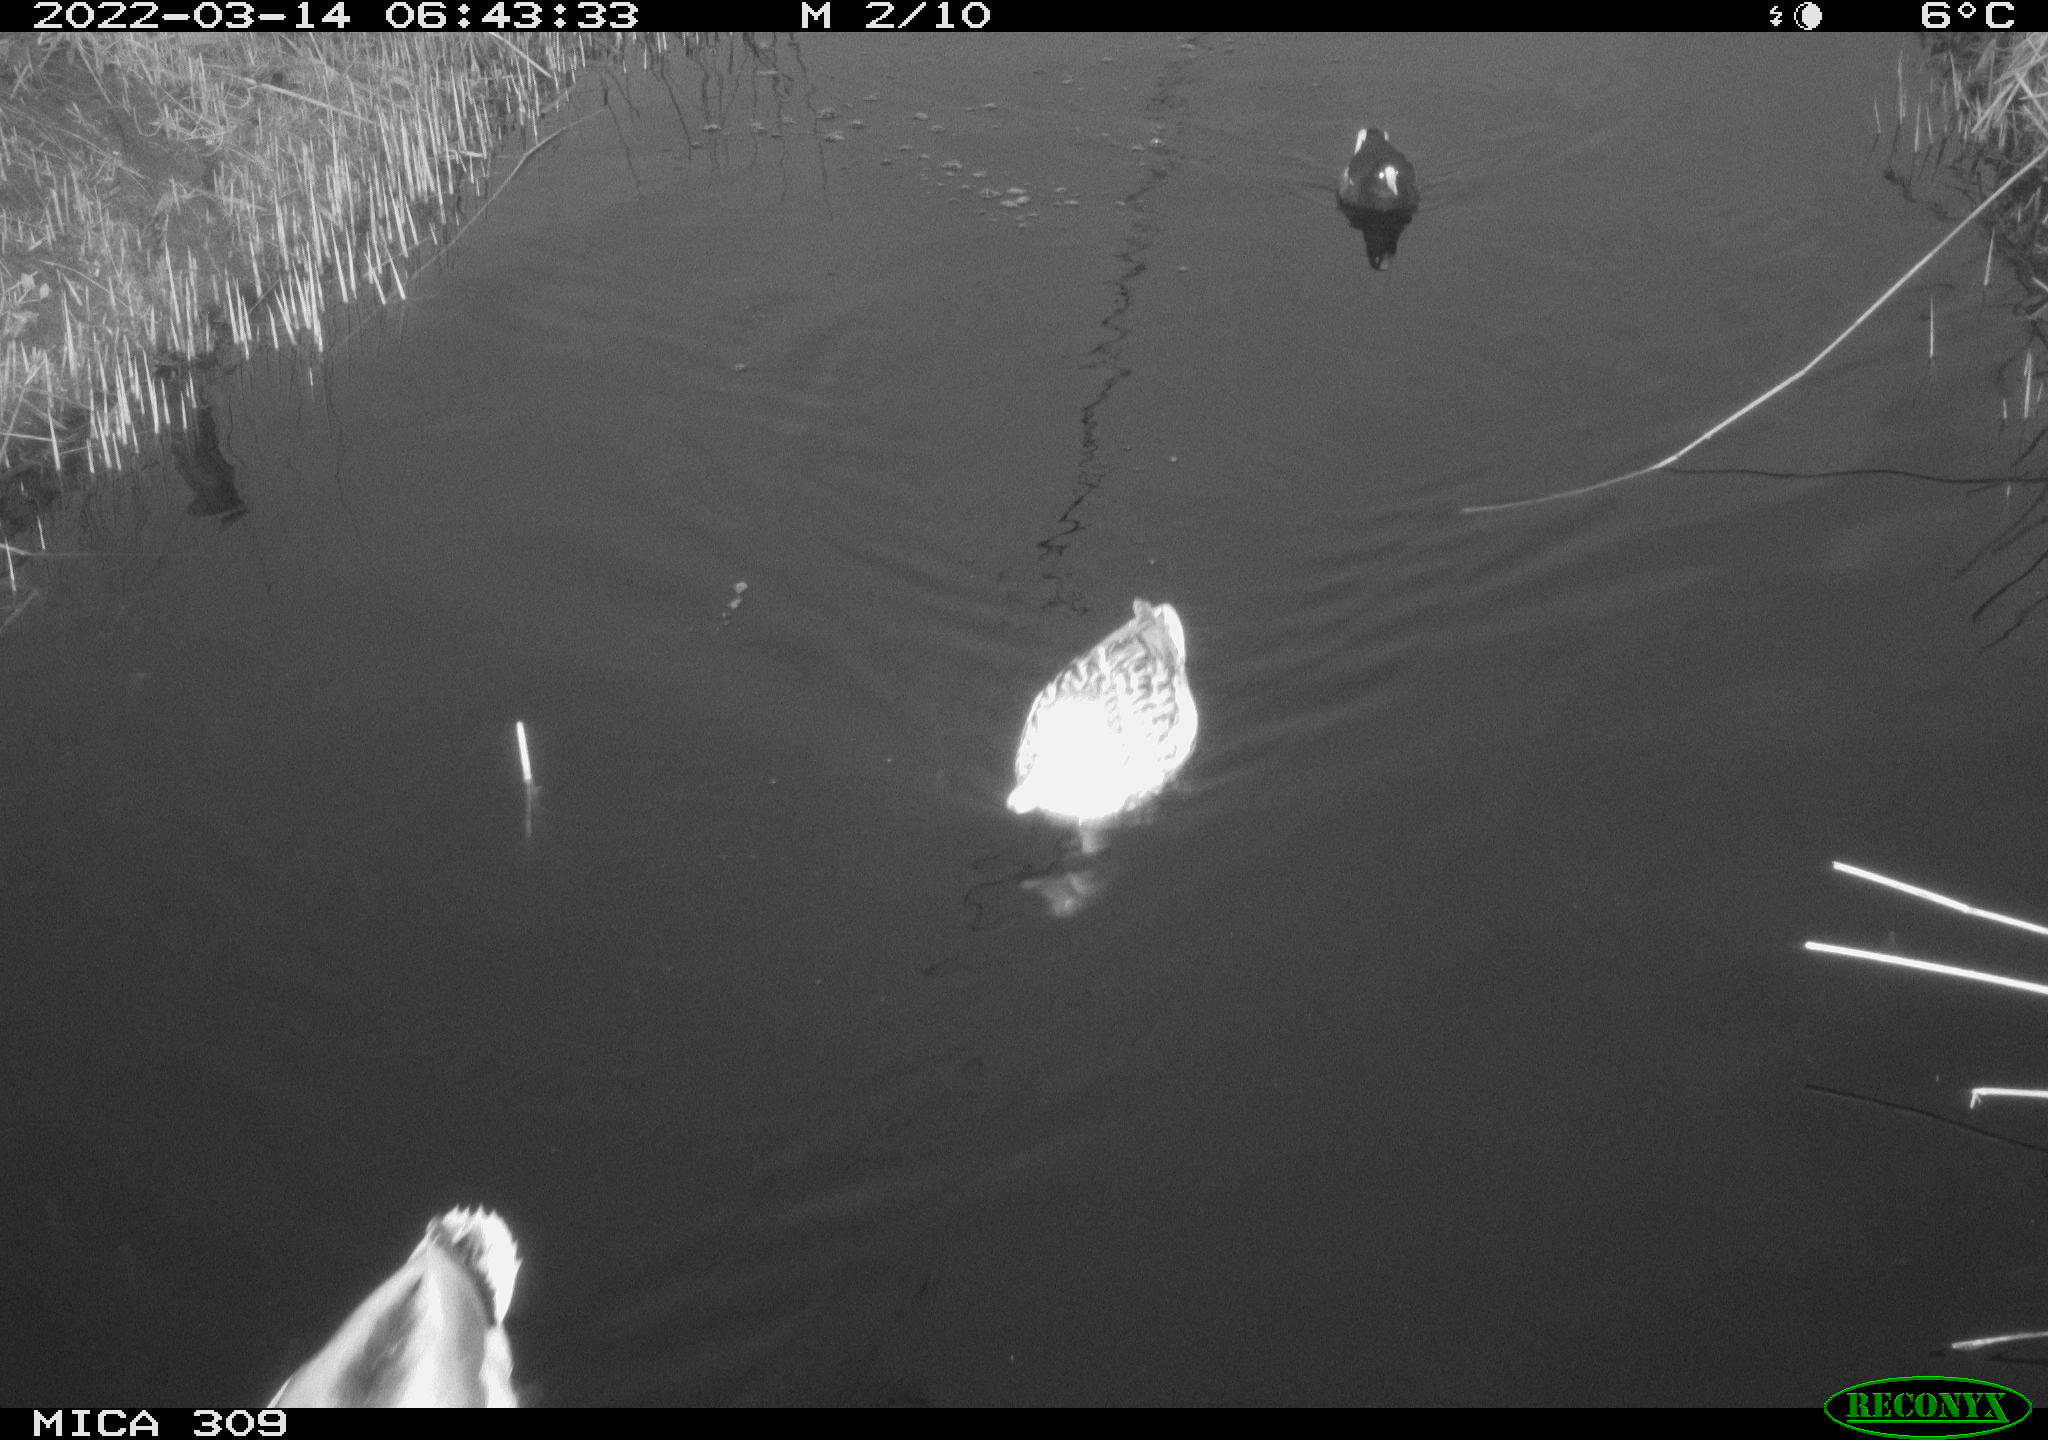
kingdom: Animalia
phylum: Chordata
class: Aves
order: Gruiformes
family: Rallidae
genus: Gallinula
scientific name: Gallinula chloropus
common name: Common moorhen
